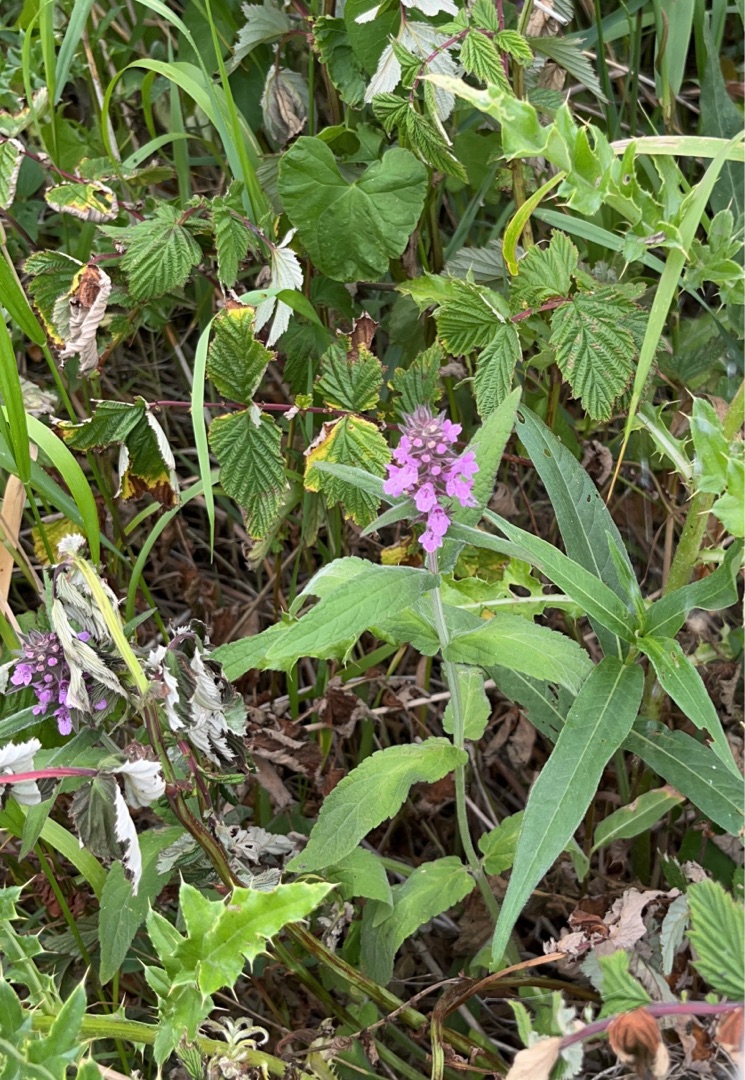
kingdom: Plantae
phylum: Tracheophyta
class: Magnoliopsida
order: Lamiales
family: Lamiaceae
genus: Stachys
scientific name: Stachys palustris
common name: Kær-galtetand
